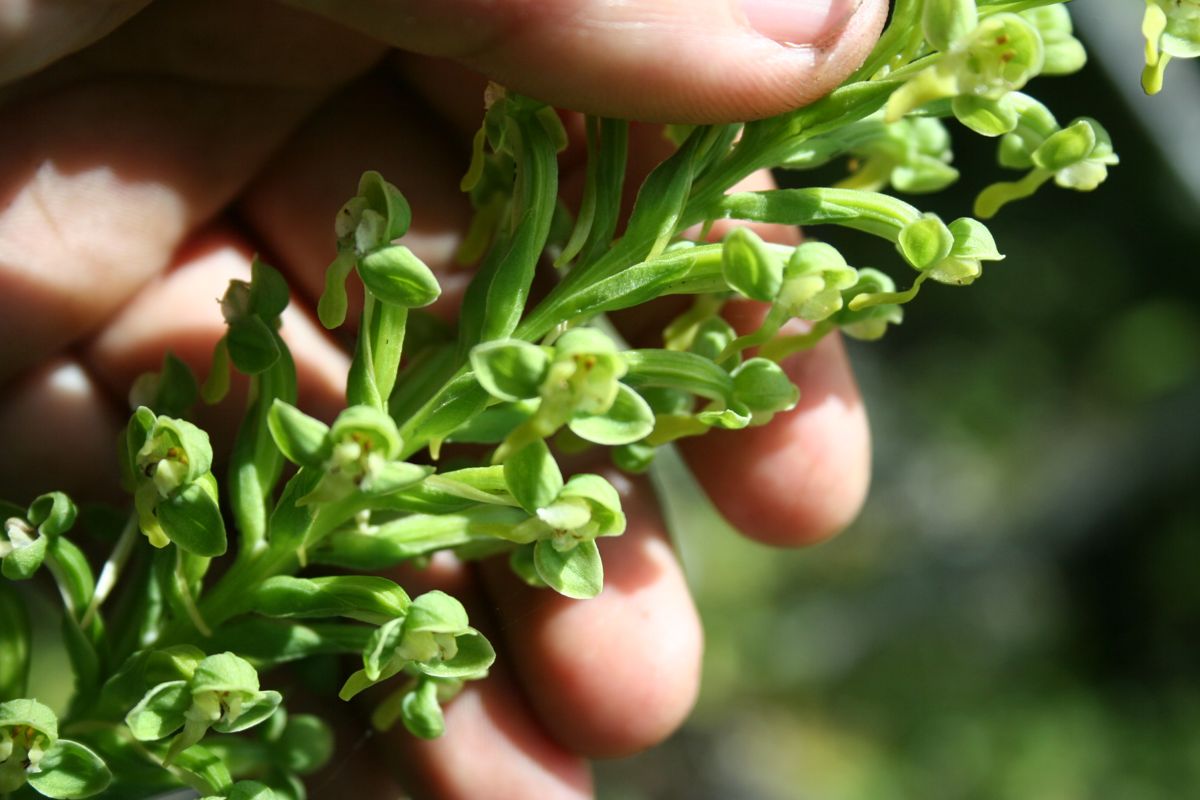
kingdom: Plantae
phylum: Tracheophyta
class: Liliopsida
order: Asparagales
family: Orchidaceae
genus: Habenaria
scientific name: Habenaria
